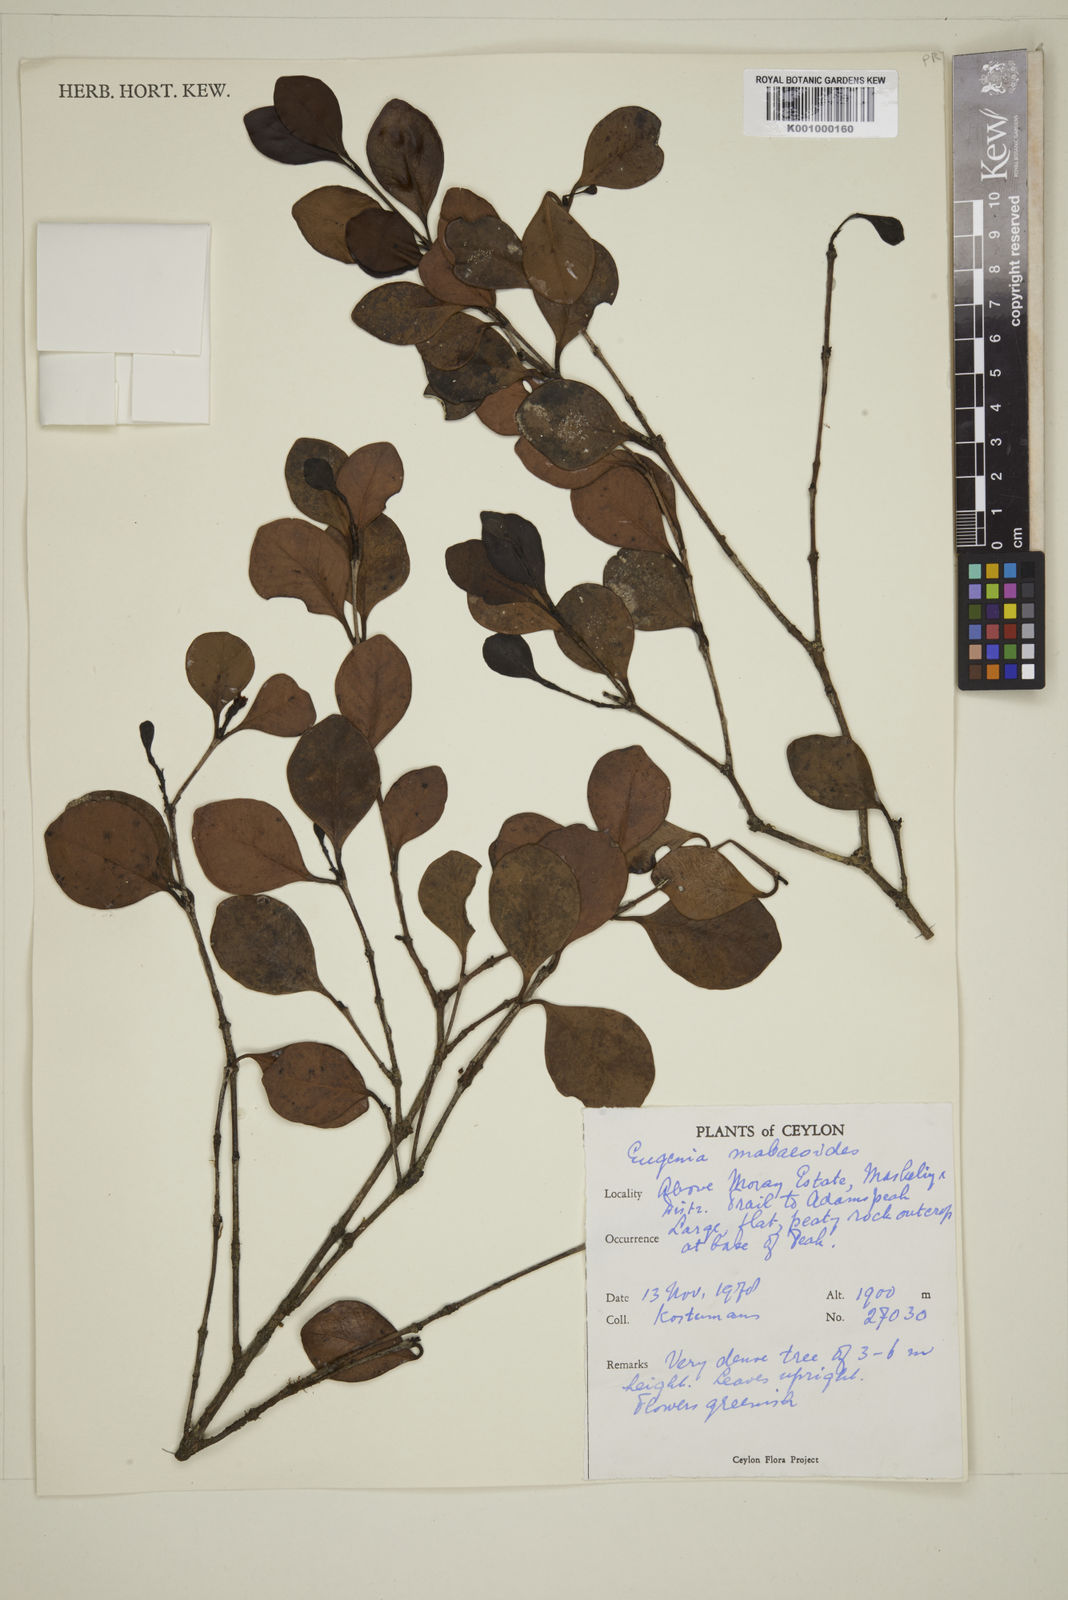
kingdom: Plantae
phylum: Tracheophyta
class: Magnoliopsida
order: Myrtales
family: Myrtaceae
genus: Eugenia
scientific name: Eugenia mabaeoides
